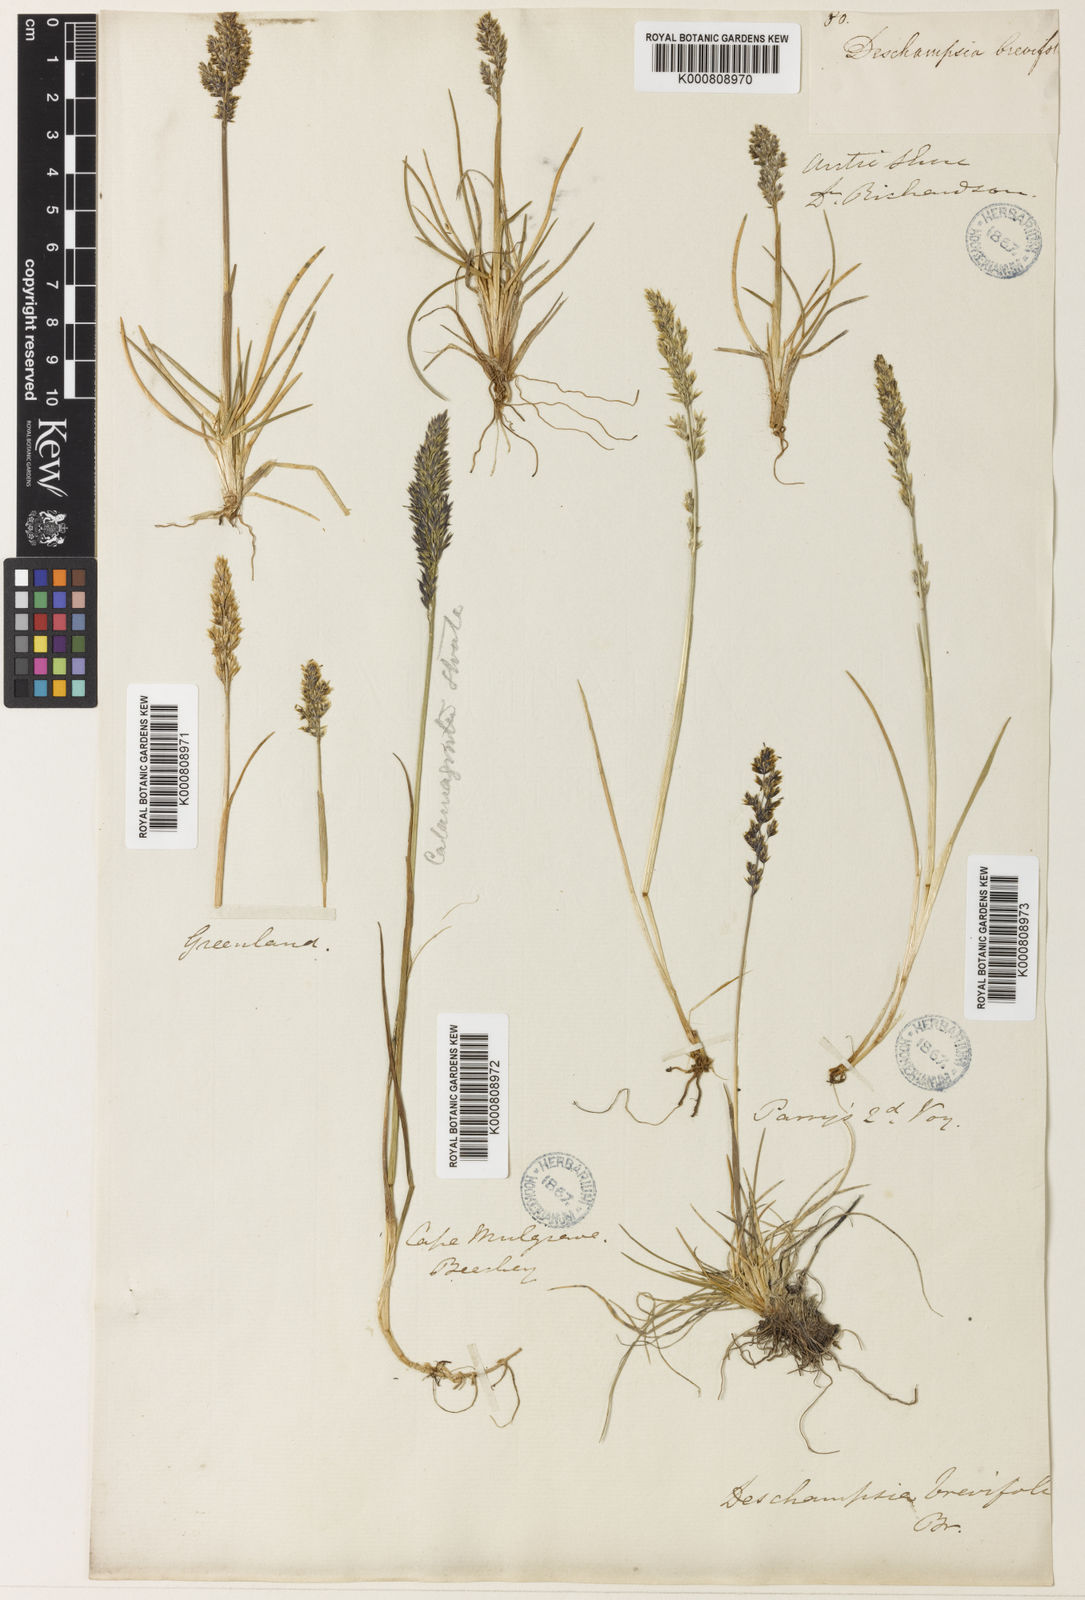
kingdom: Plantae
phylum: Tracheophyta
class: Liliopsida
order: Poales
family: Poaceae
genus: Deschampsia
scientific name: Deschampsia
